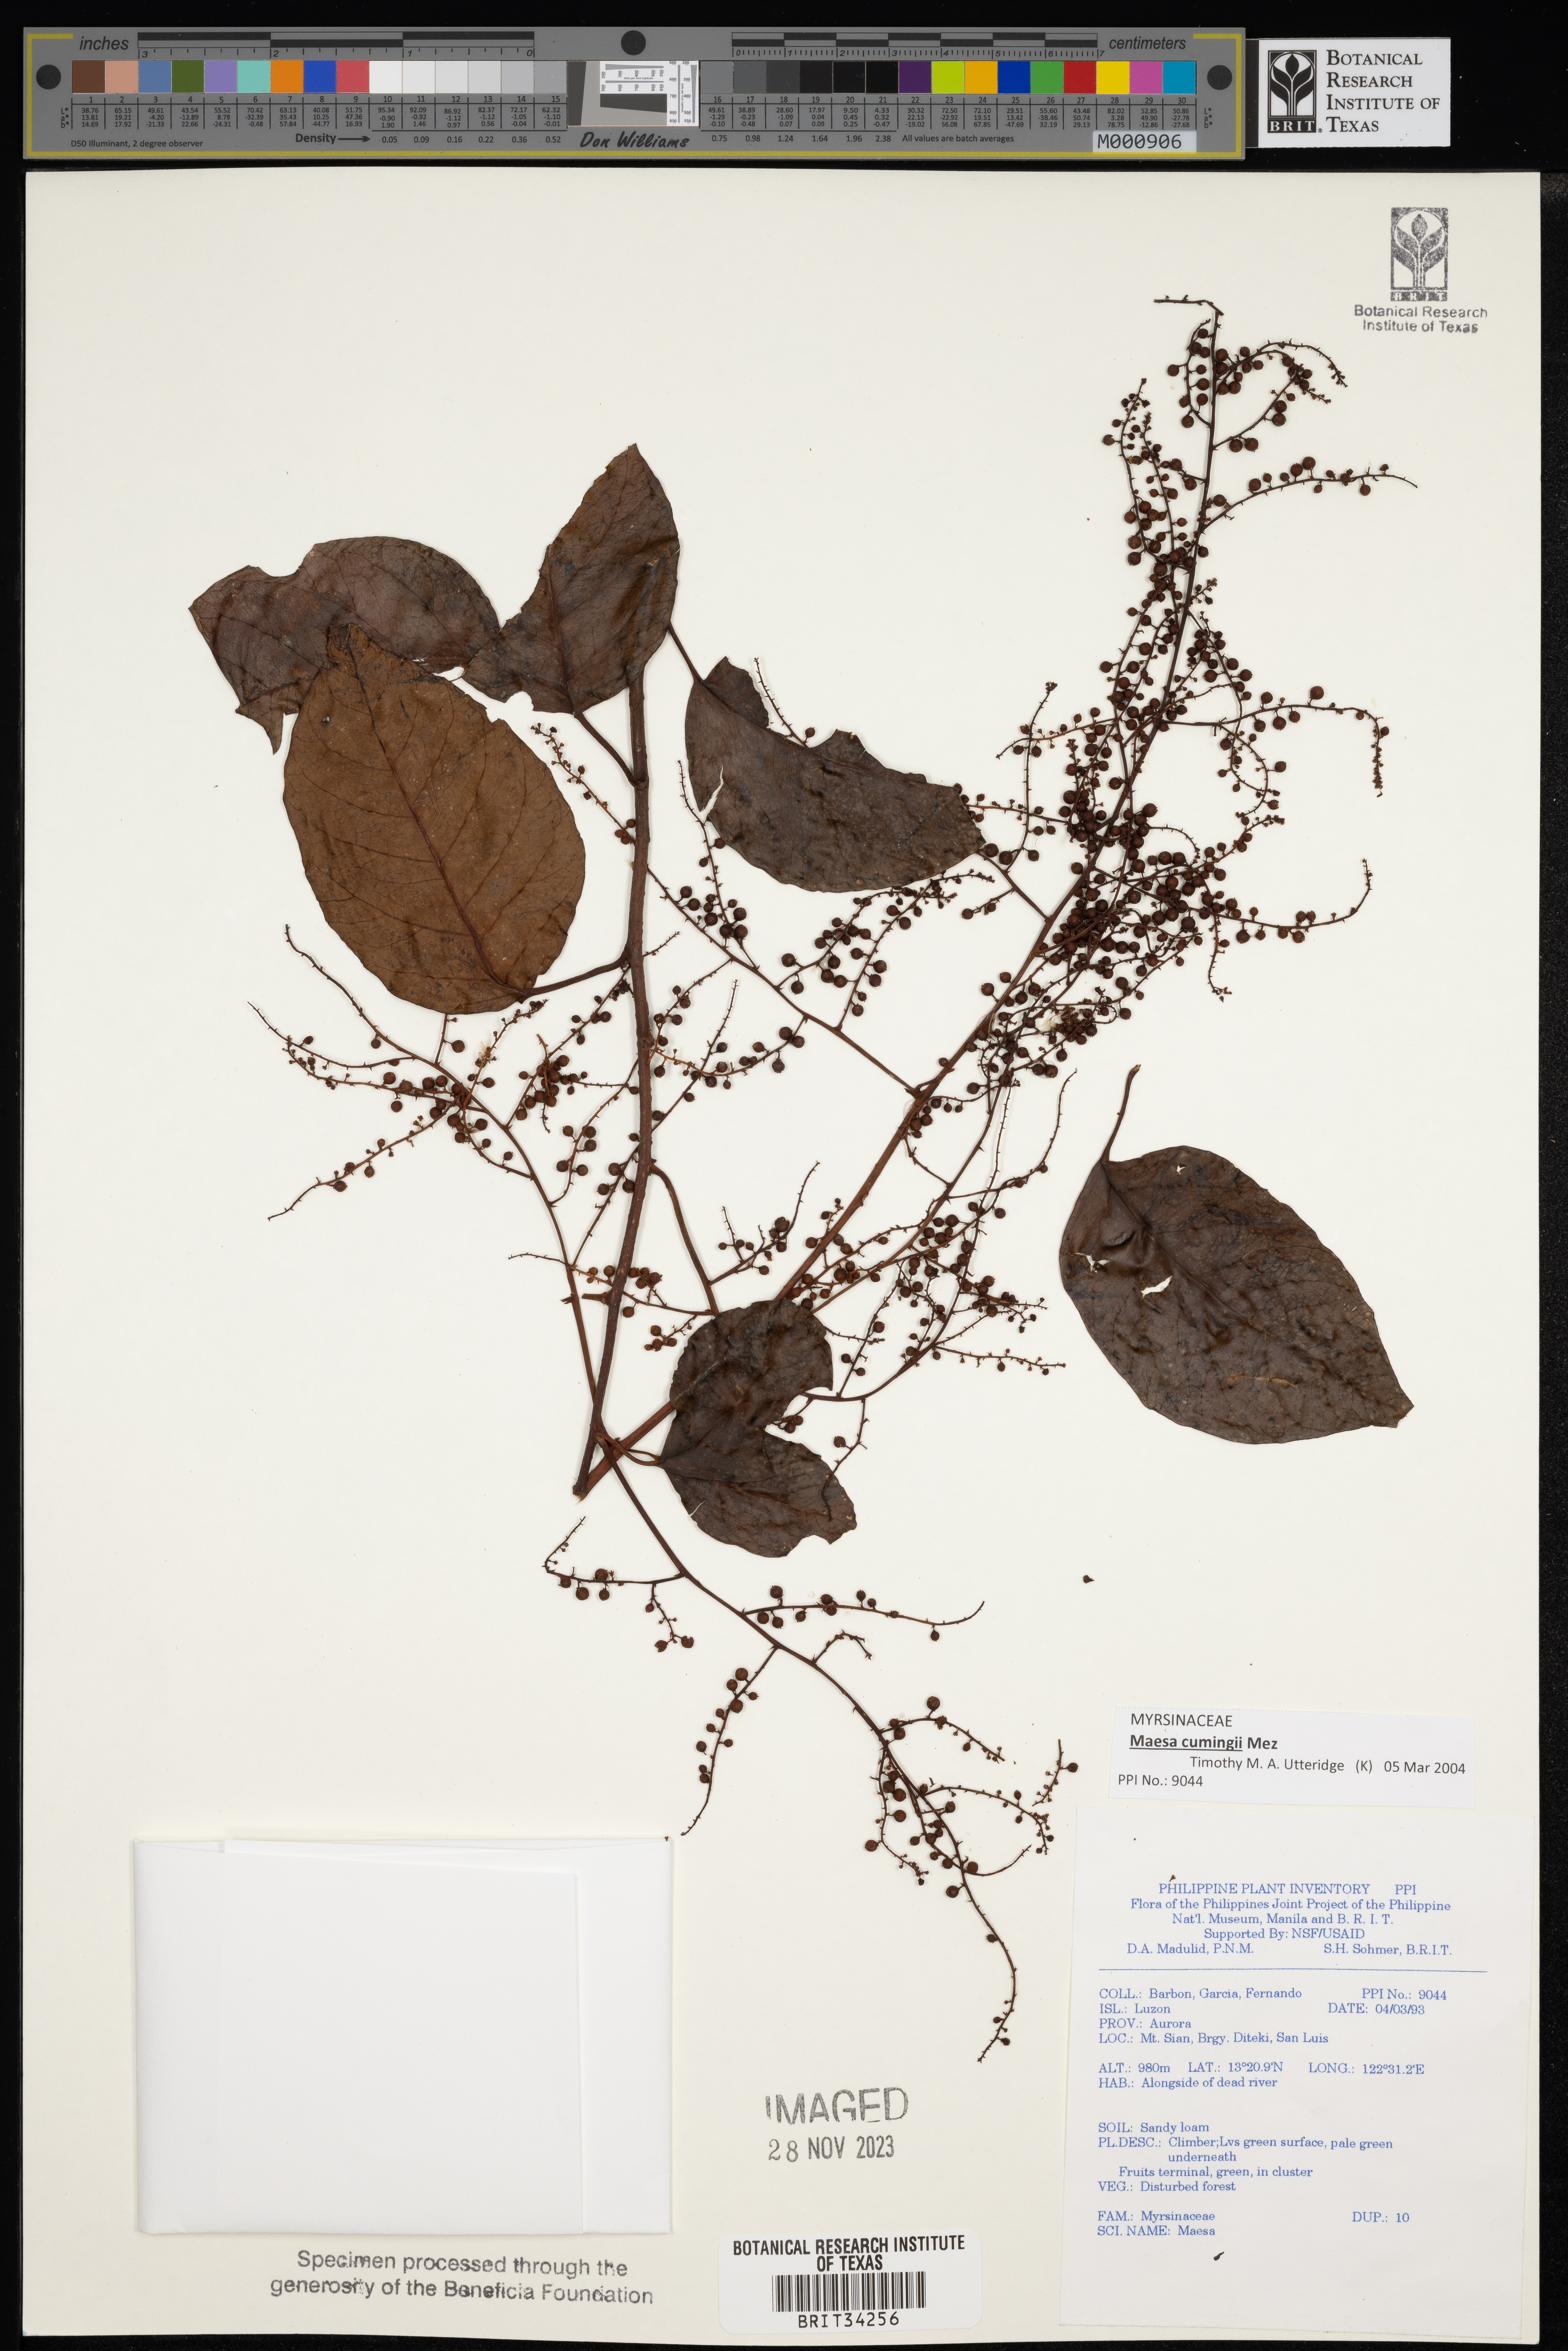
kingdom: Plantae
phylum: Tracheophyta
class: Magnoliopsida
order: Ericales
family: Primulaceae
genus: Maesa
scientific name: Maesa
